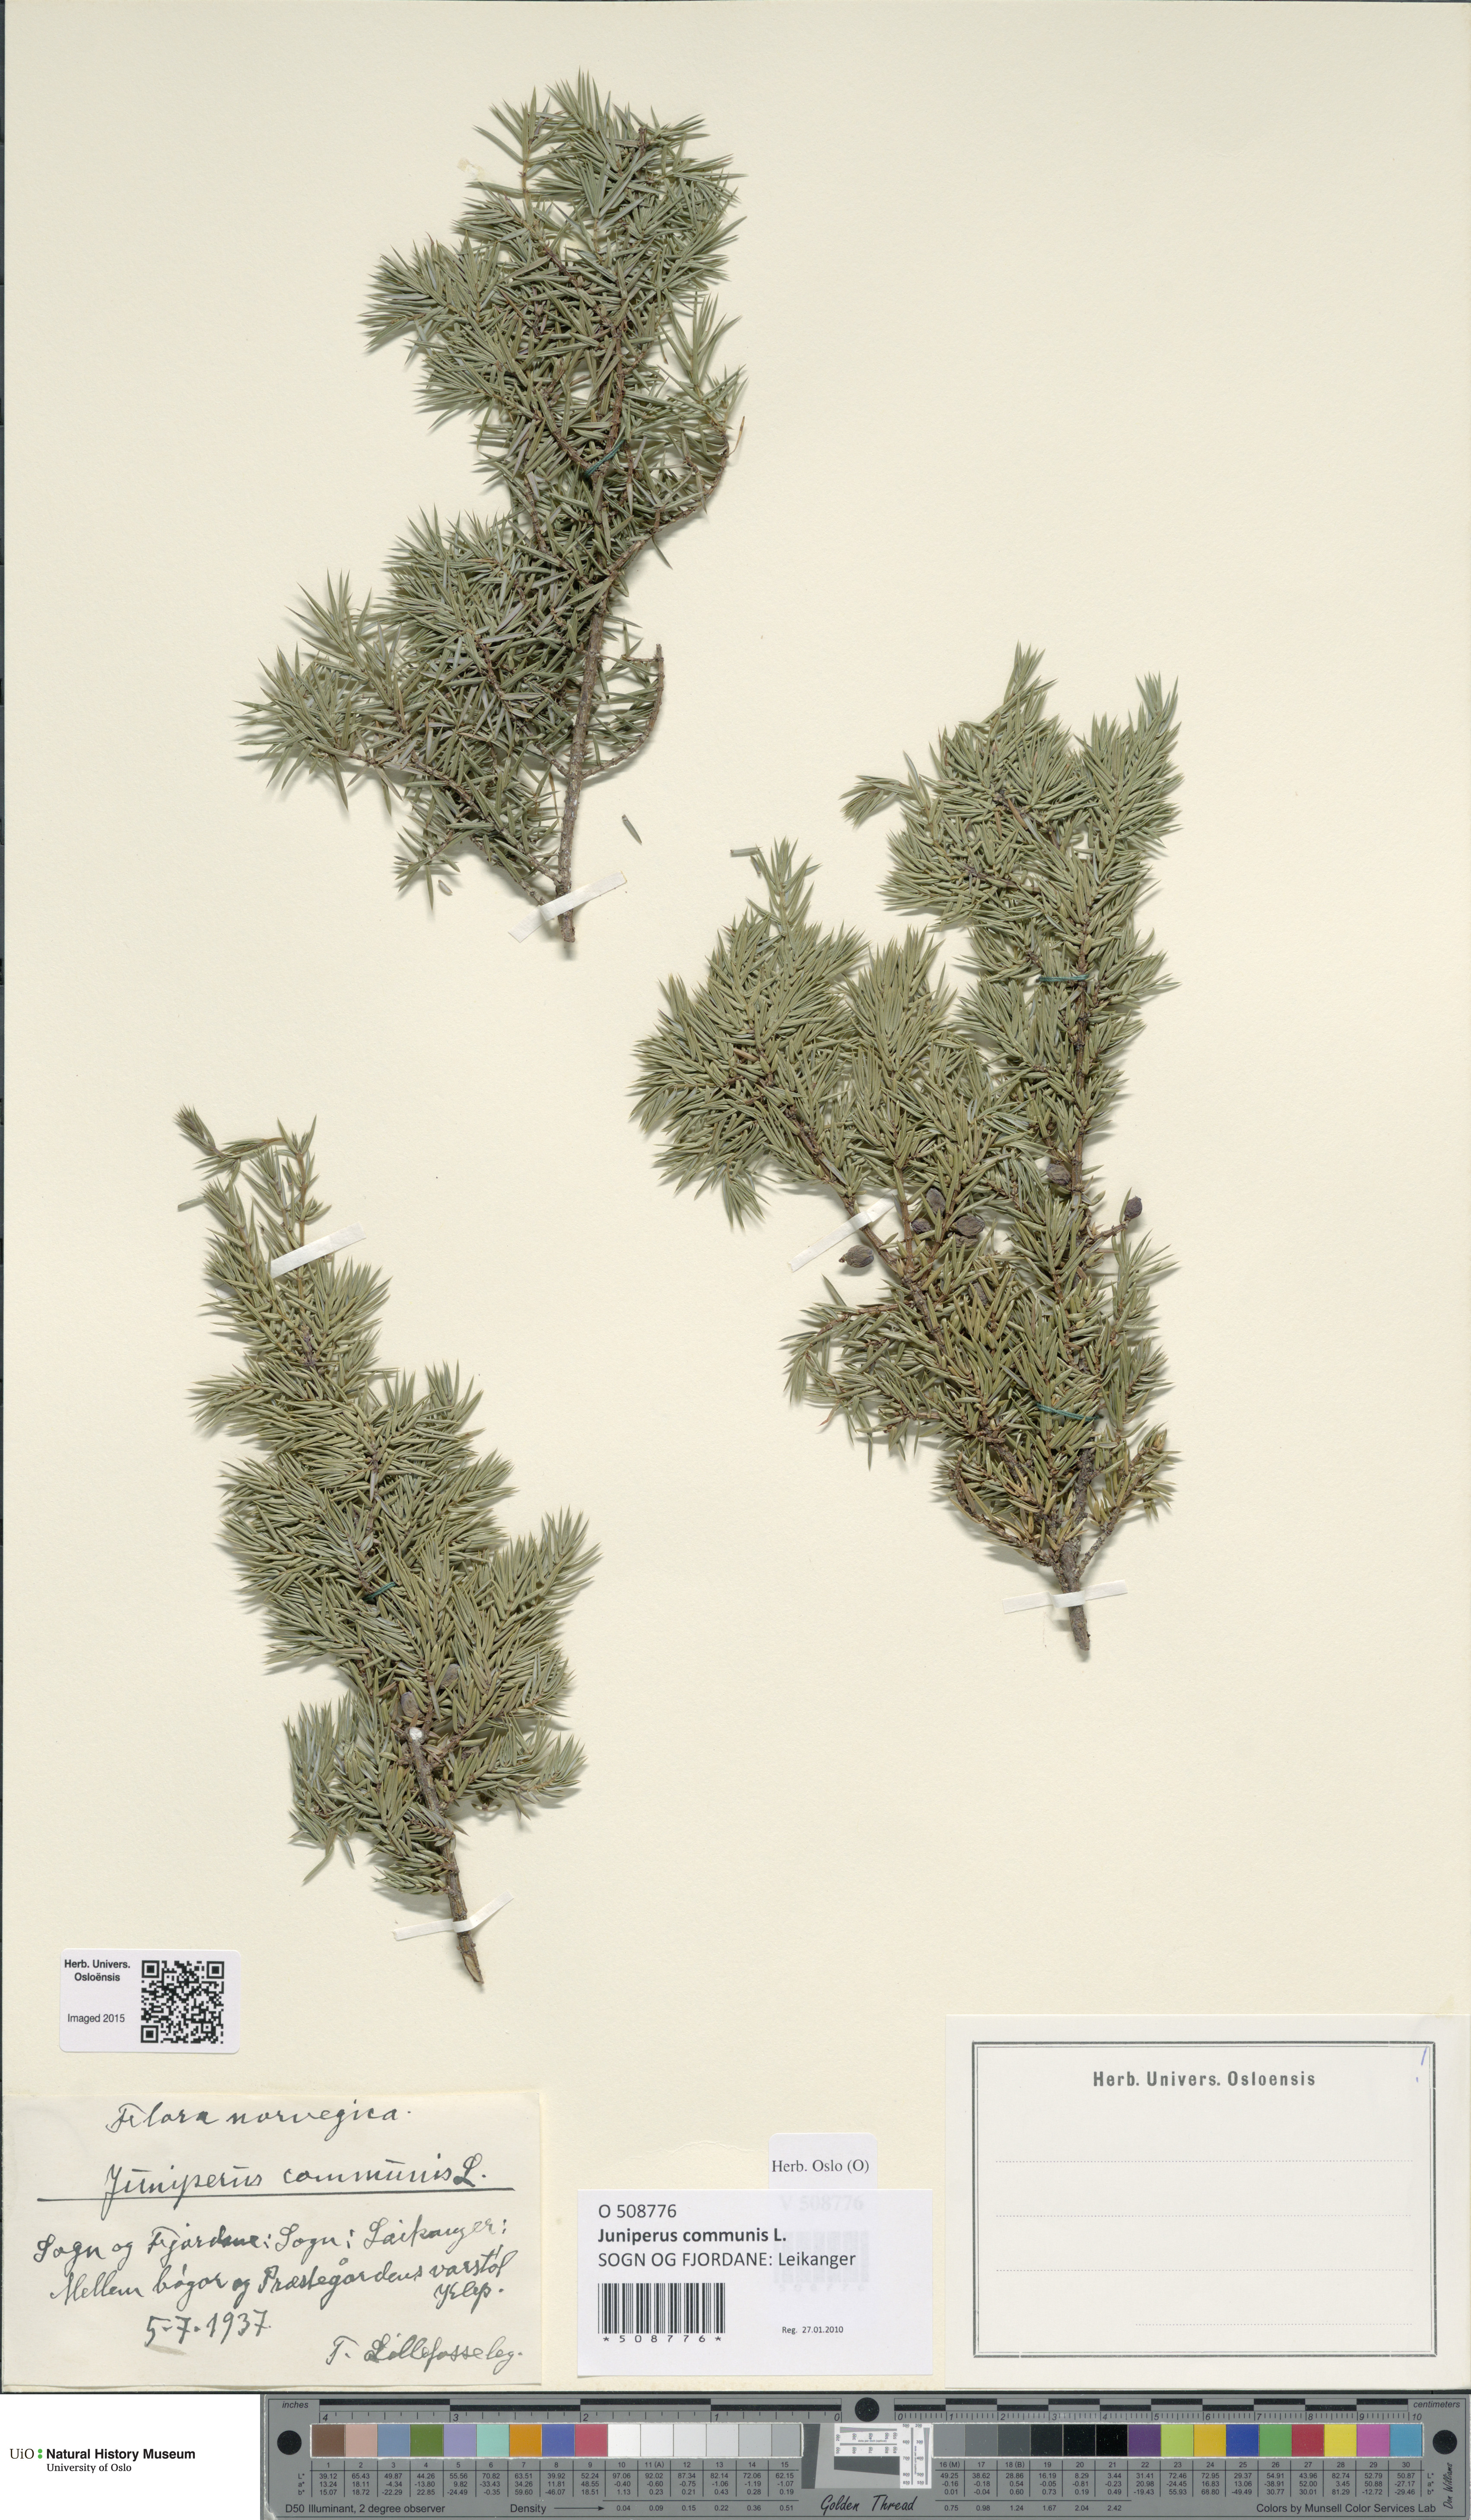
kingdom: Plantae
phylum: Tracheophyta
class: Pinopsida
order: Pinales
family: Cupressaceae
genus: Juniperus
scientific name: Juniperus communis
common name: Common juniper
